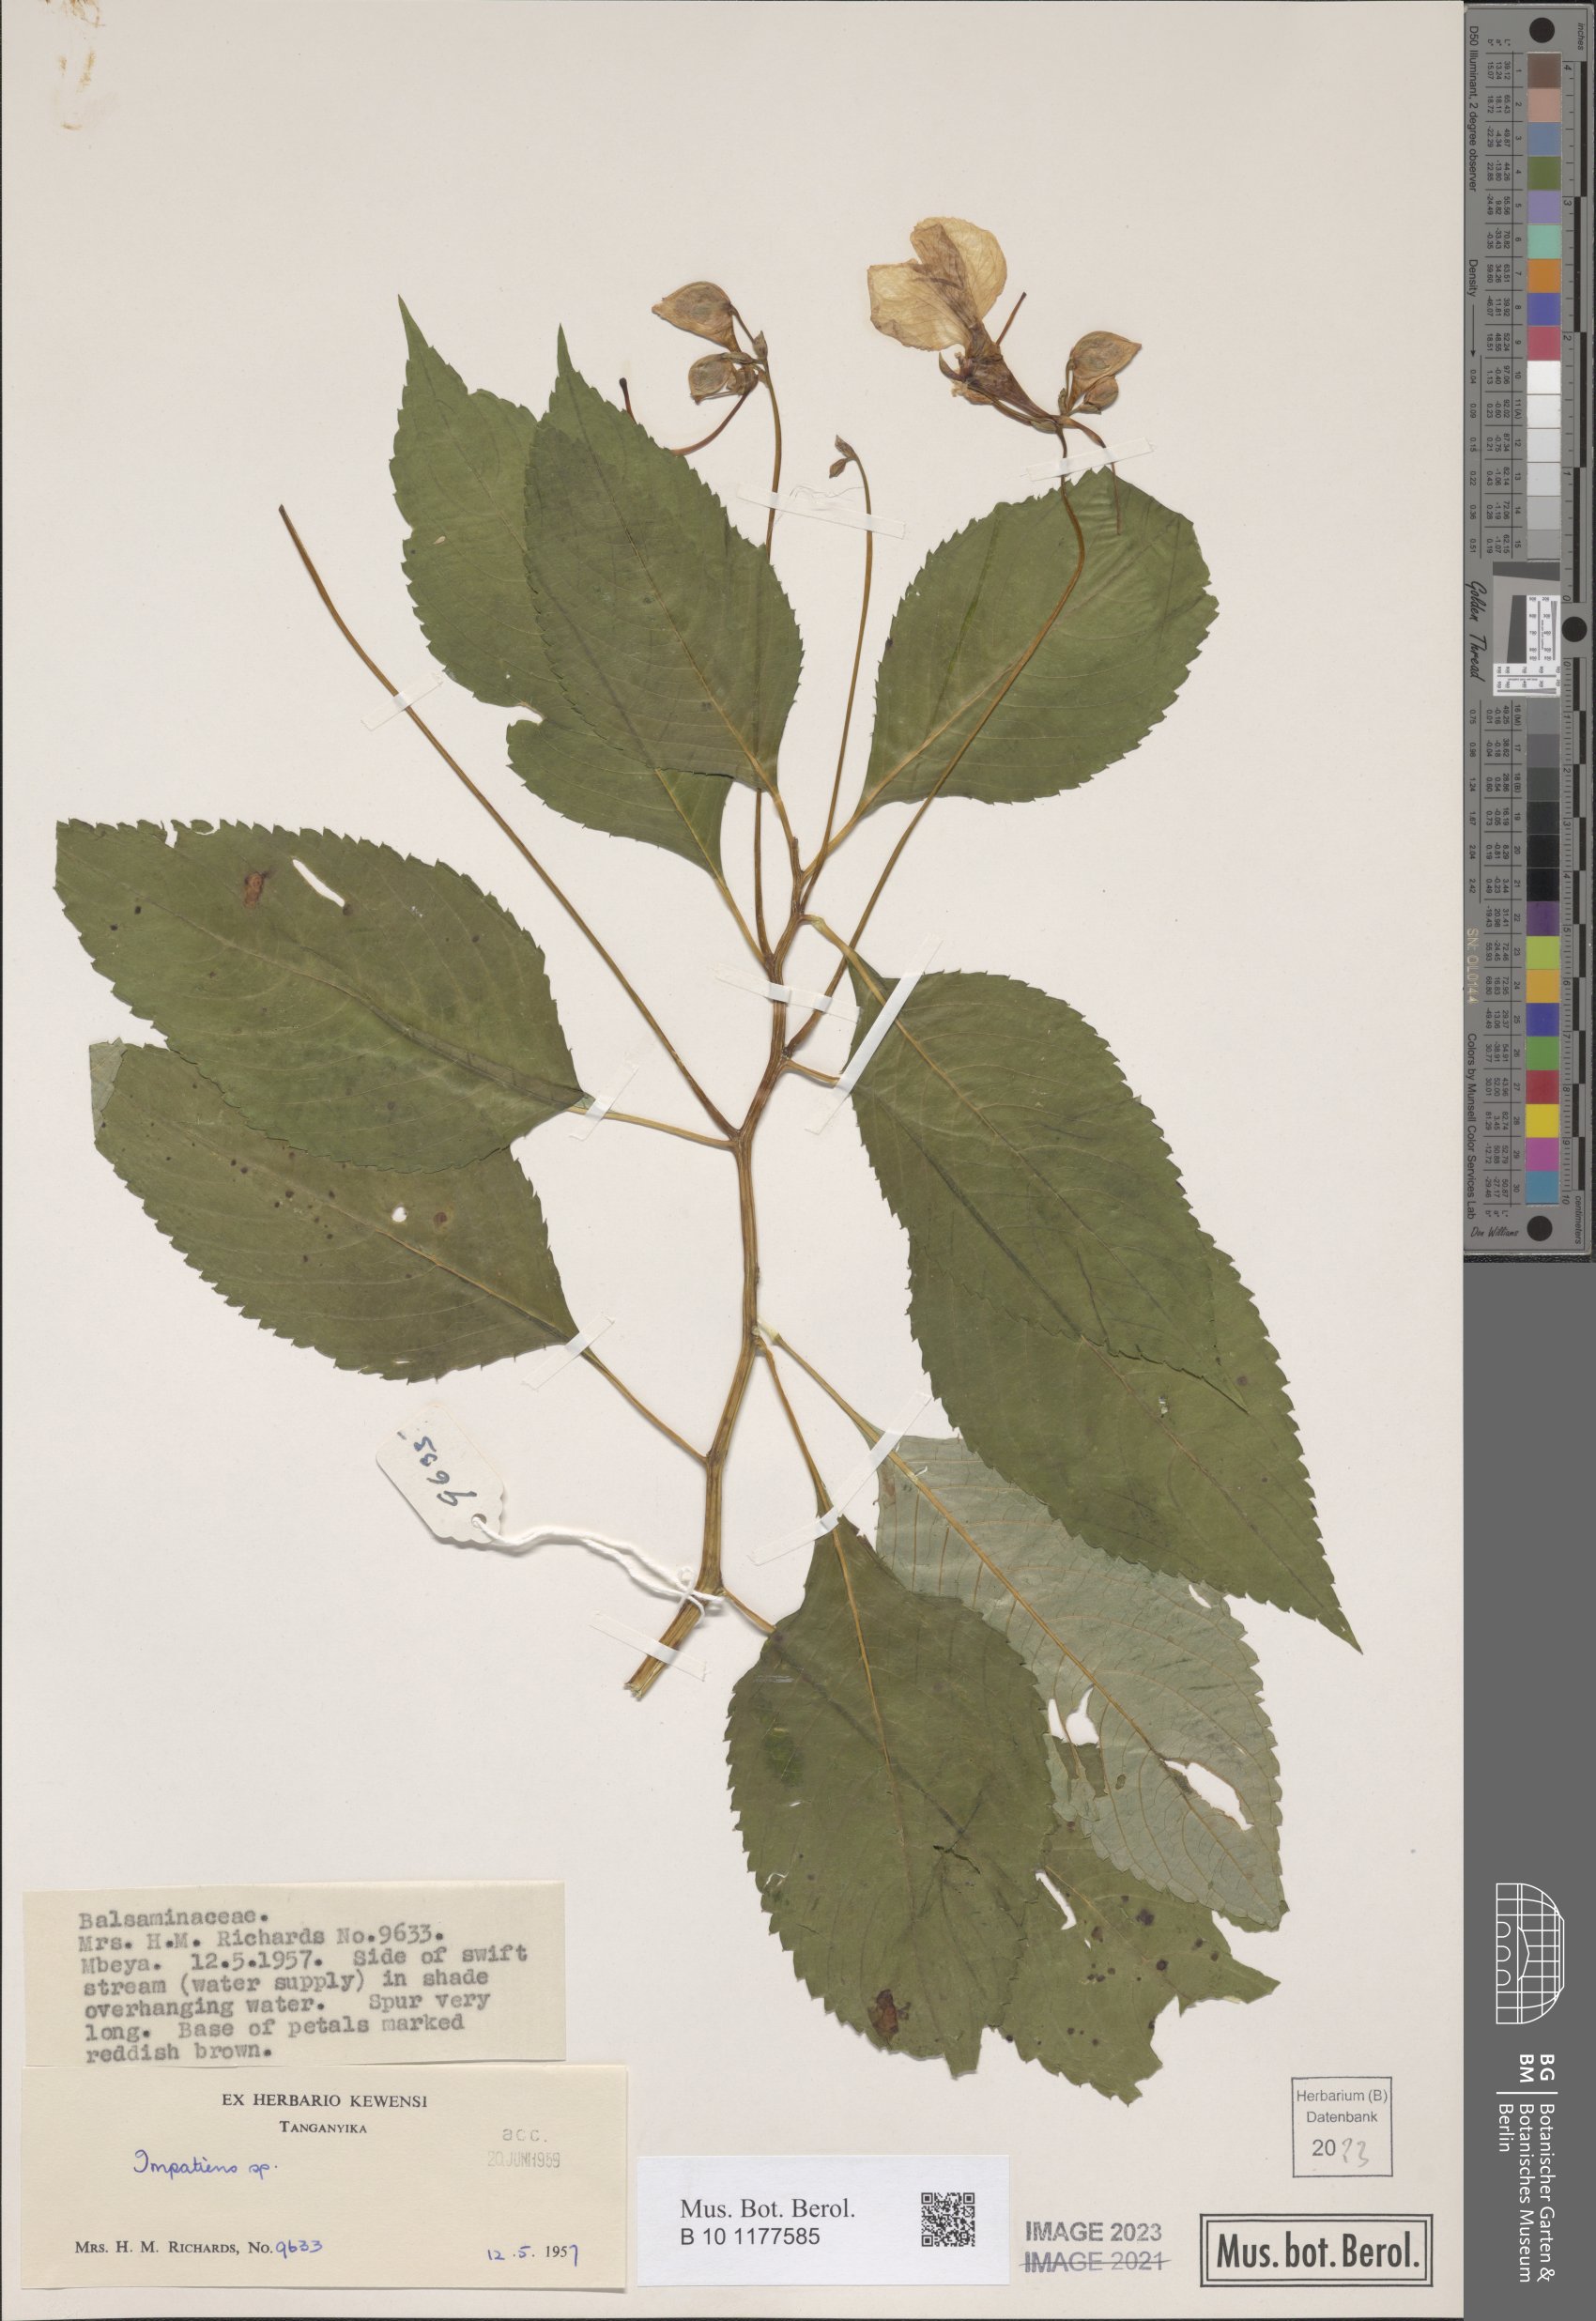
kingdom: Plantae
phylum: Tracheophyta
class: Magnoliopsida
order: Ericales
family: Balsaminaceae
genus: Impatiens
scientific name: Impatiens
